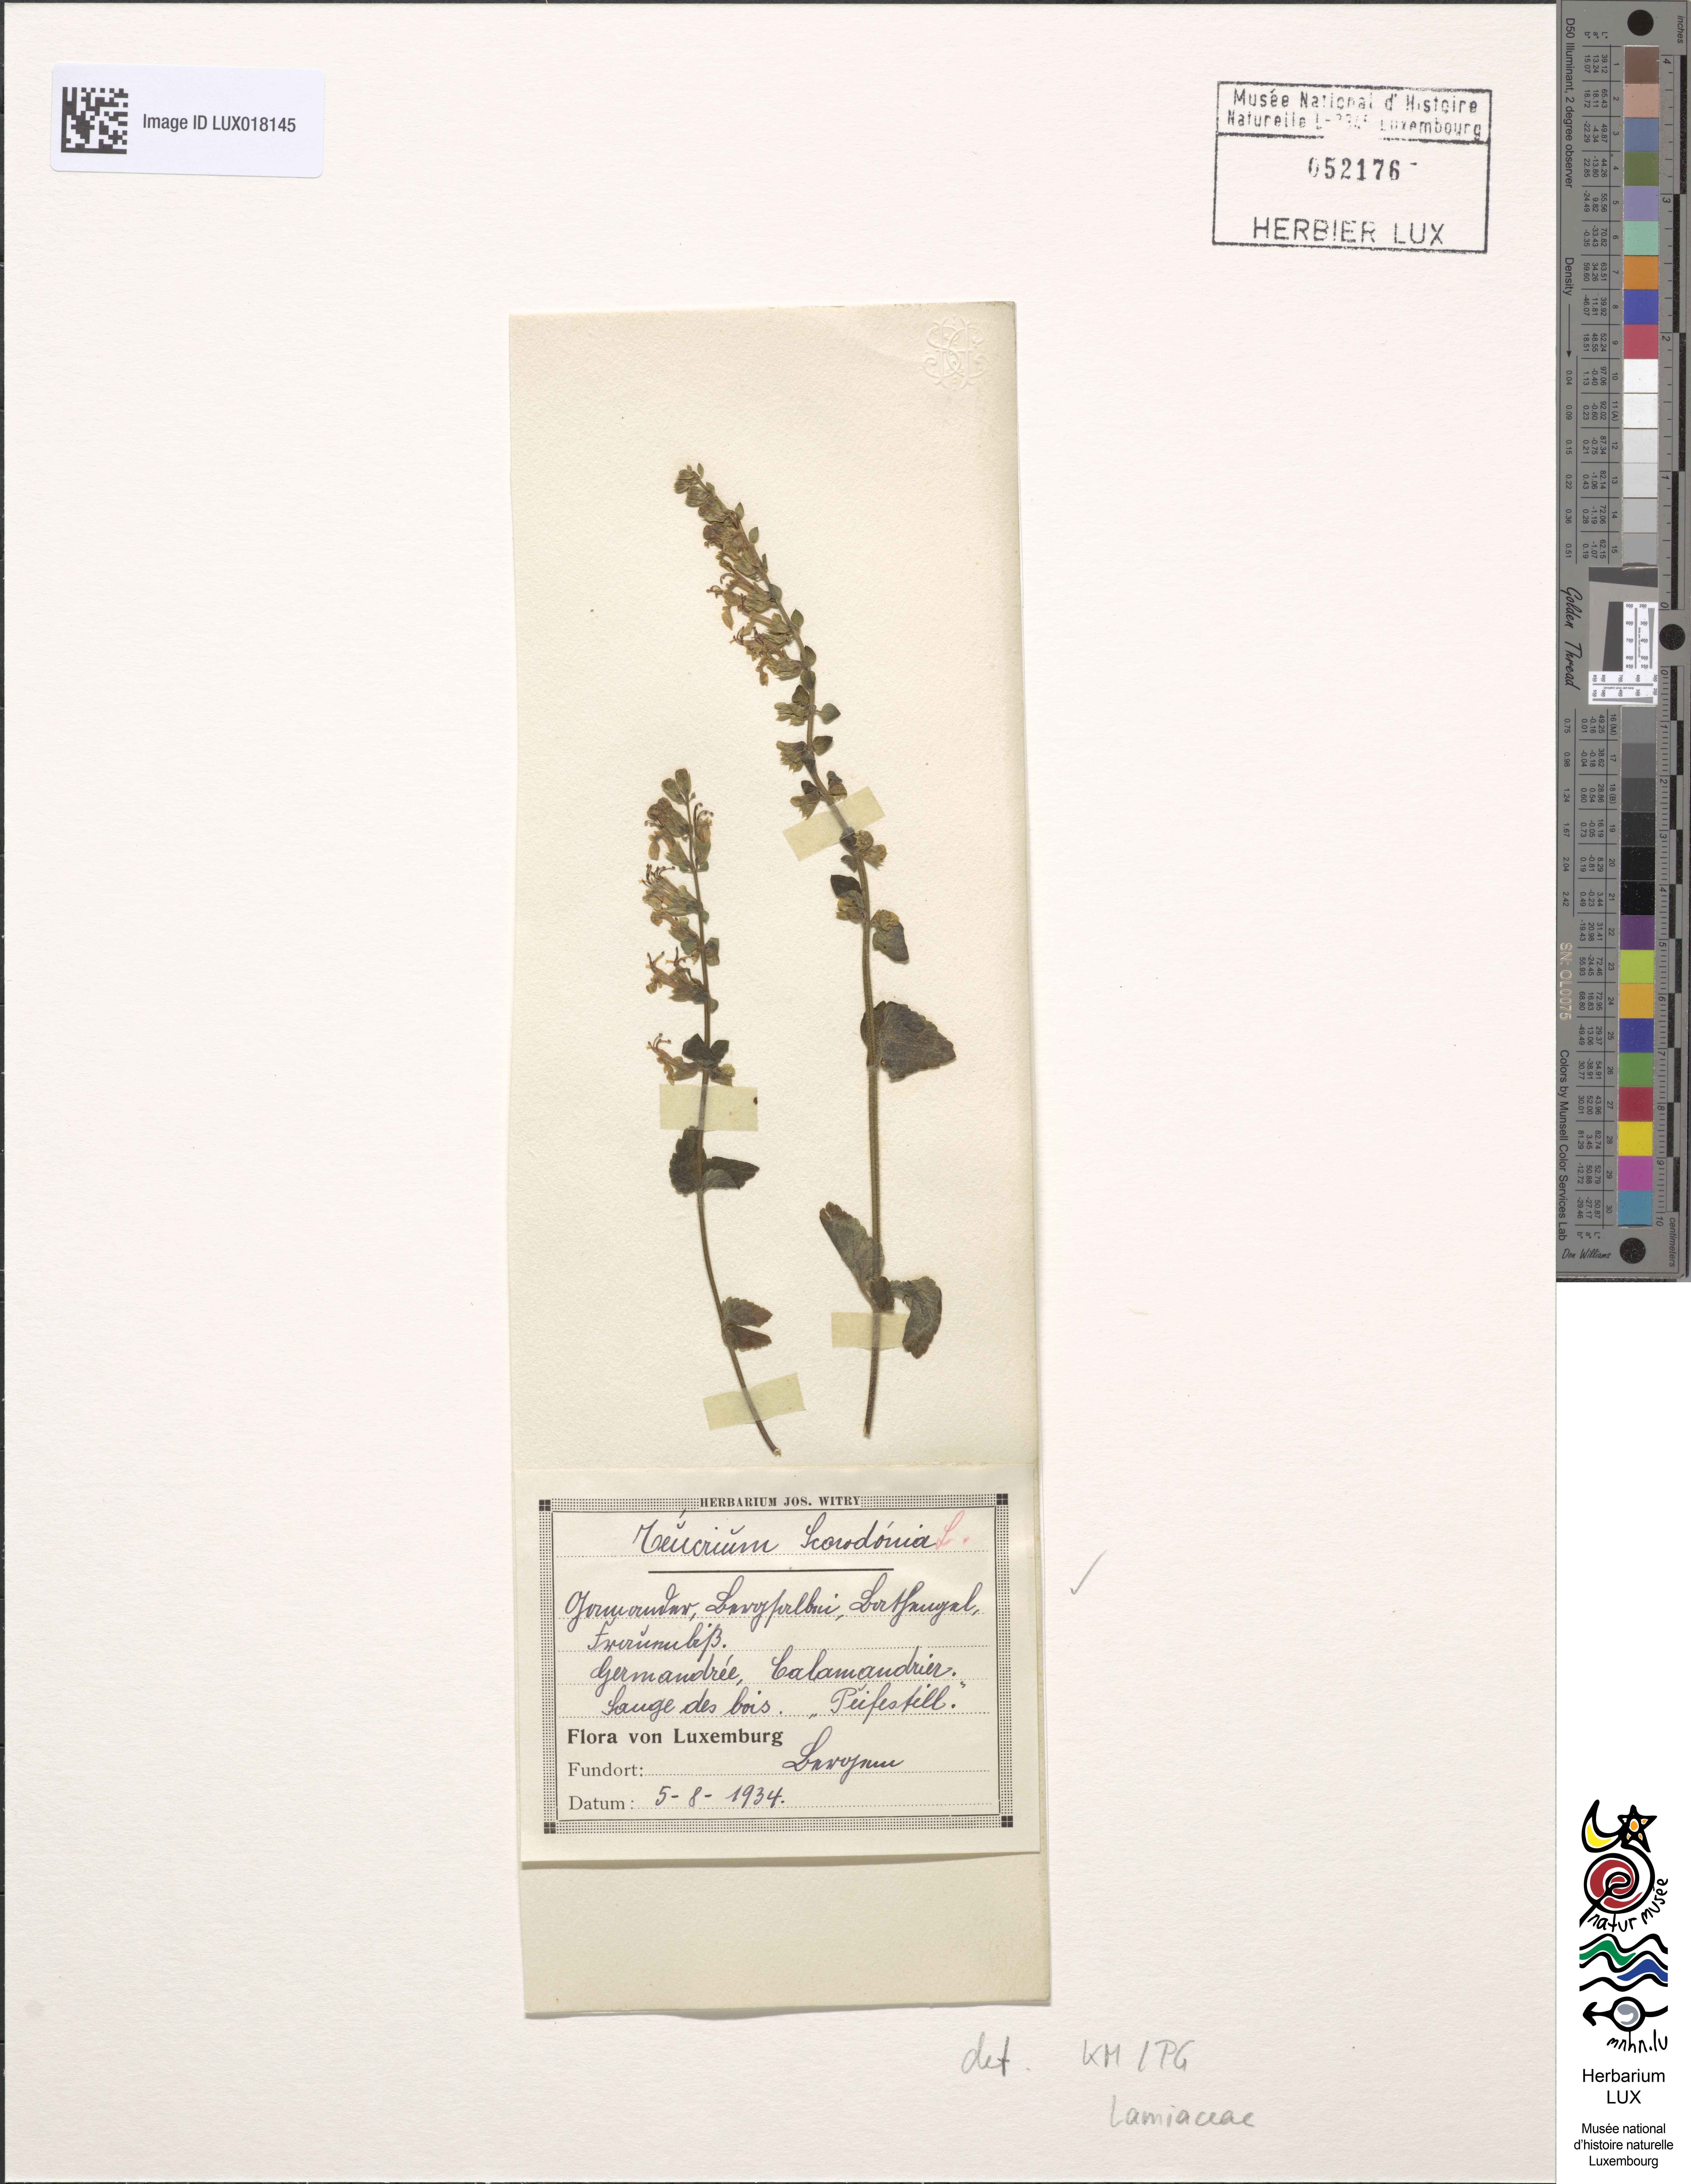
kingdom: Plantae
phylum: Tracheophyta
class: Magnoliopsida
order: Lamiales
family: Lamiaceae
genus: Teucrium
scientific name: Teucrium scorodonia
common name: Woodland germander
